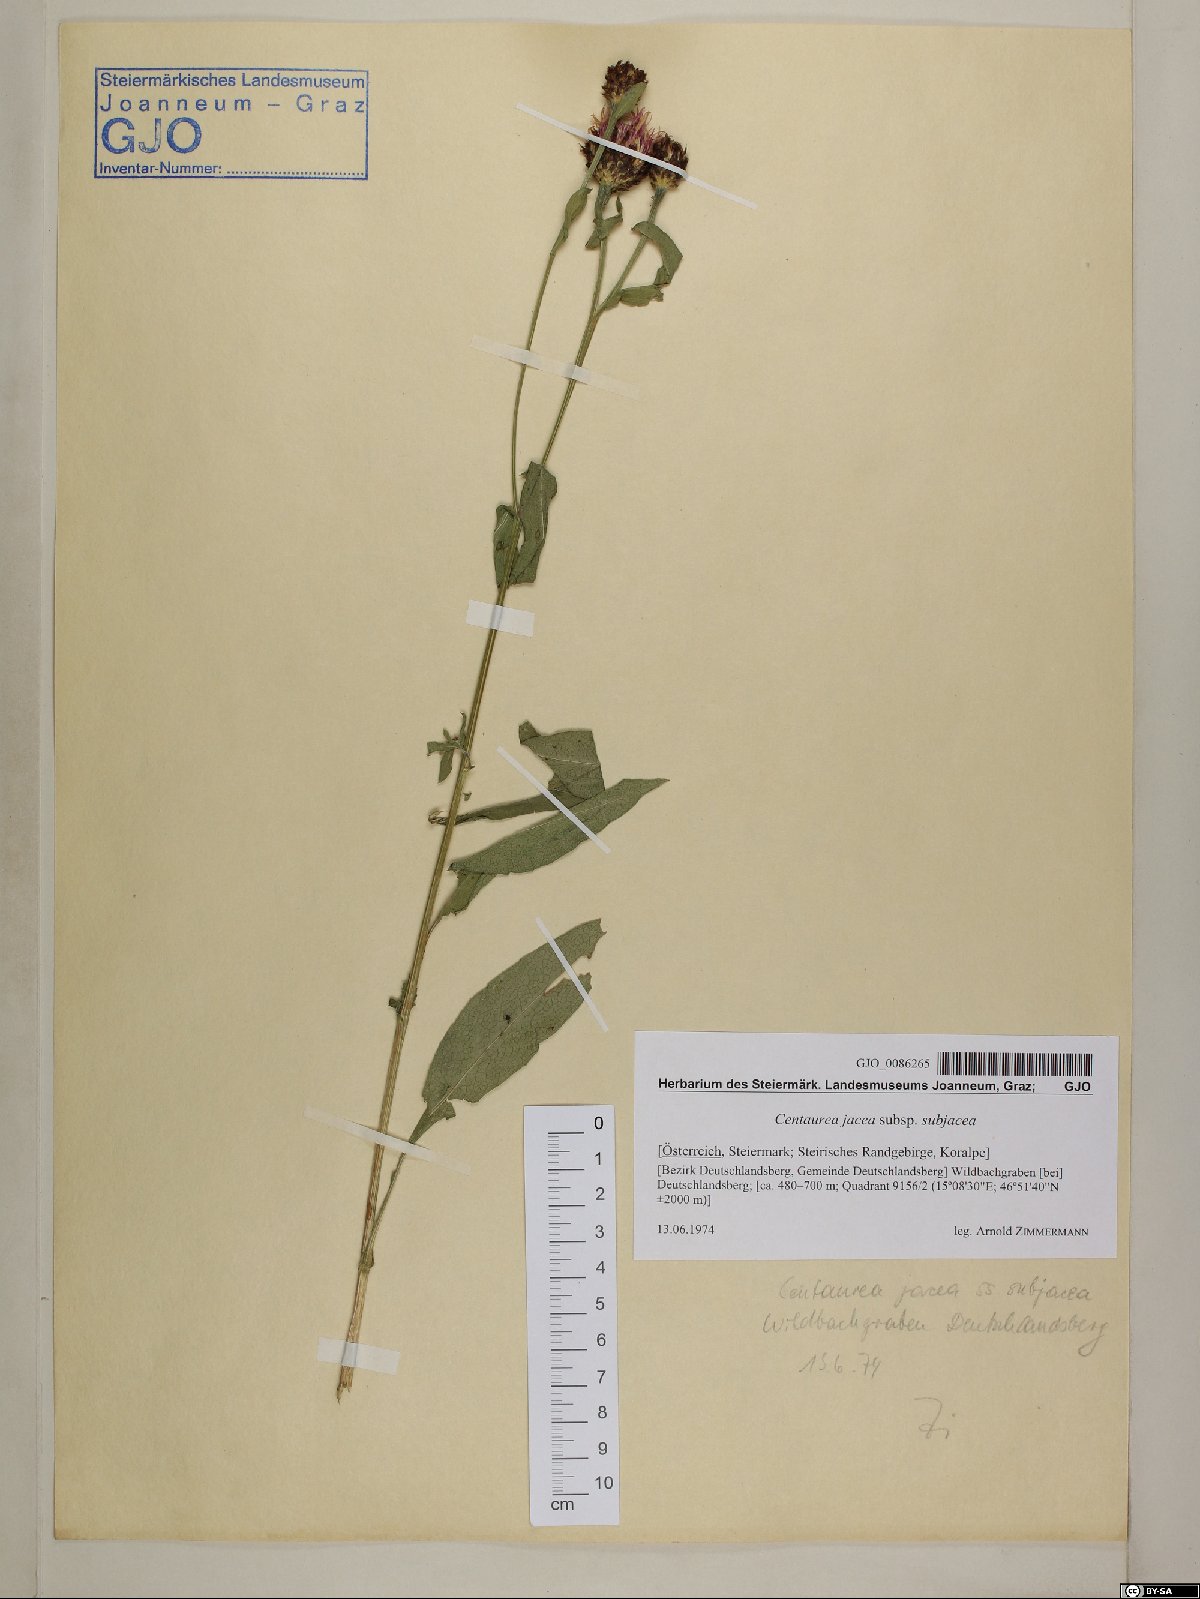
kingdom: Plantae
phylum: Tracheophyta
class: Magnoliopsida
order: Asterales
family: Asteraceae
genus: Centaurea
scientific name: Centaurea preissmannii
